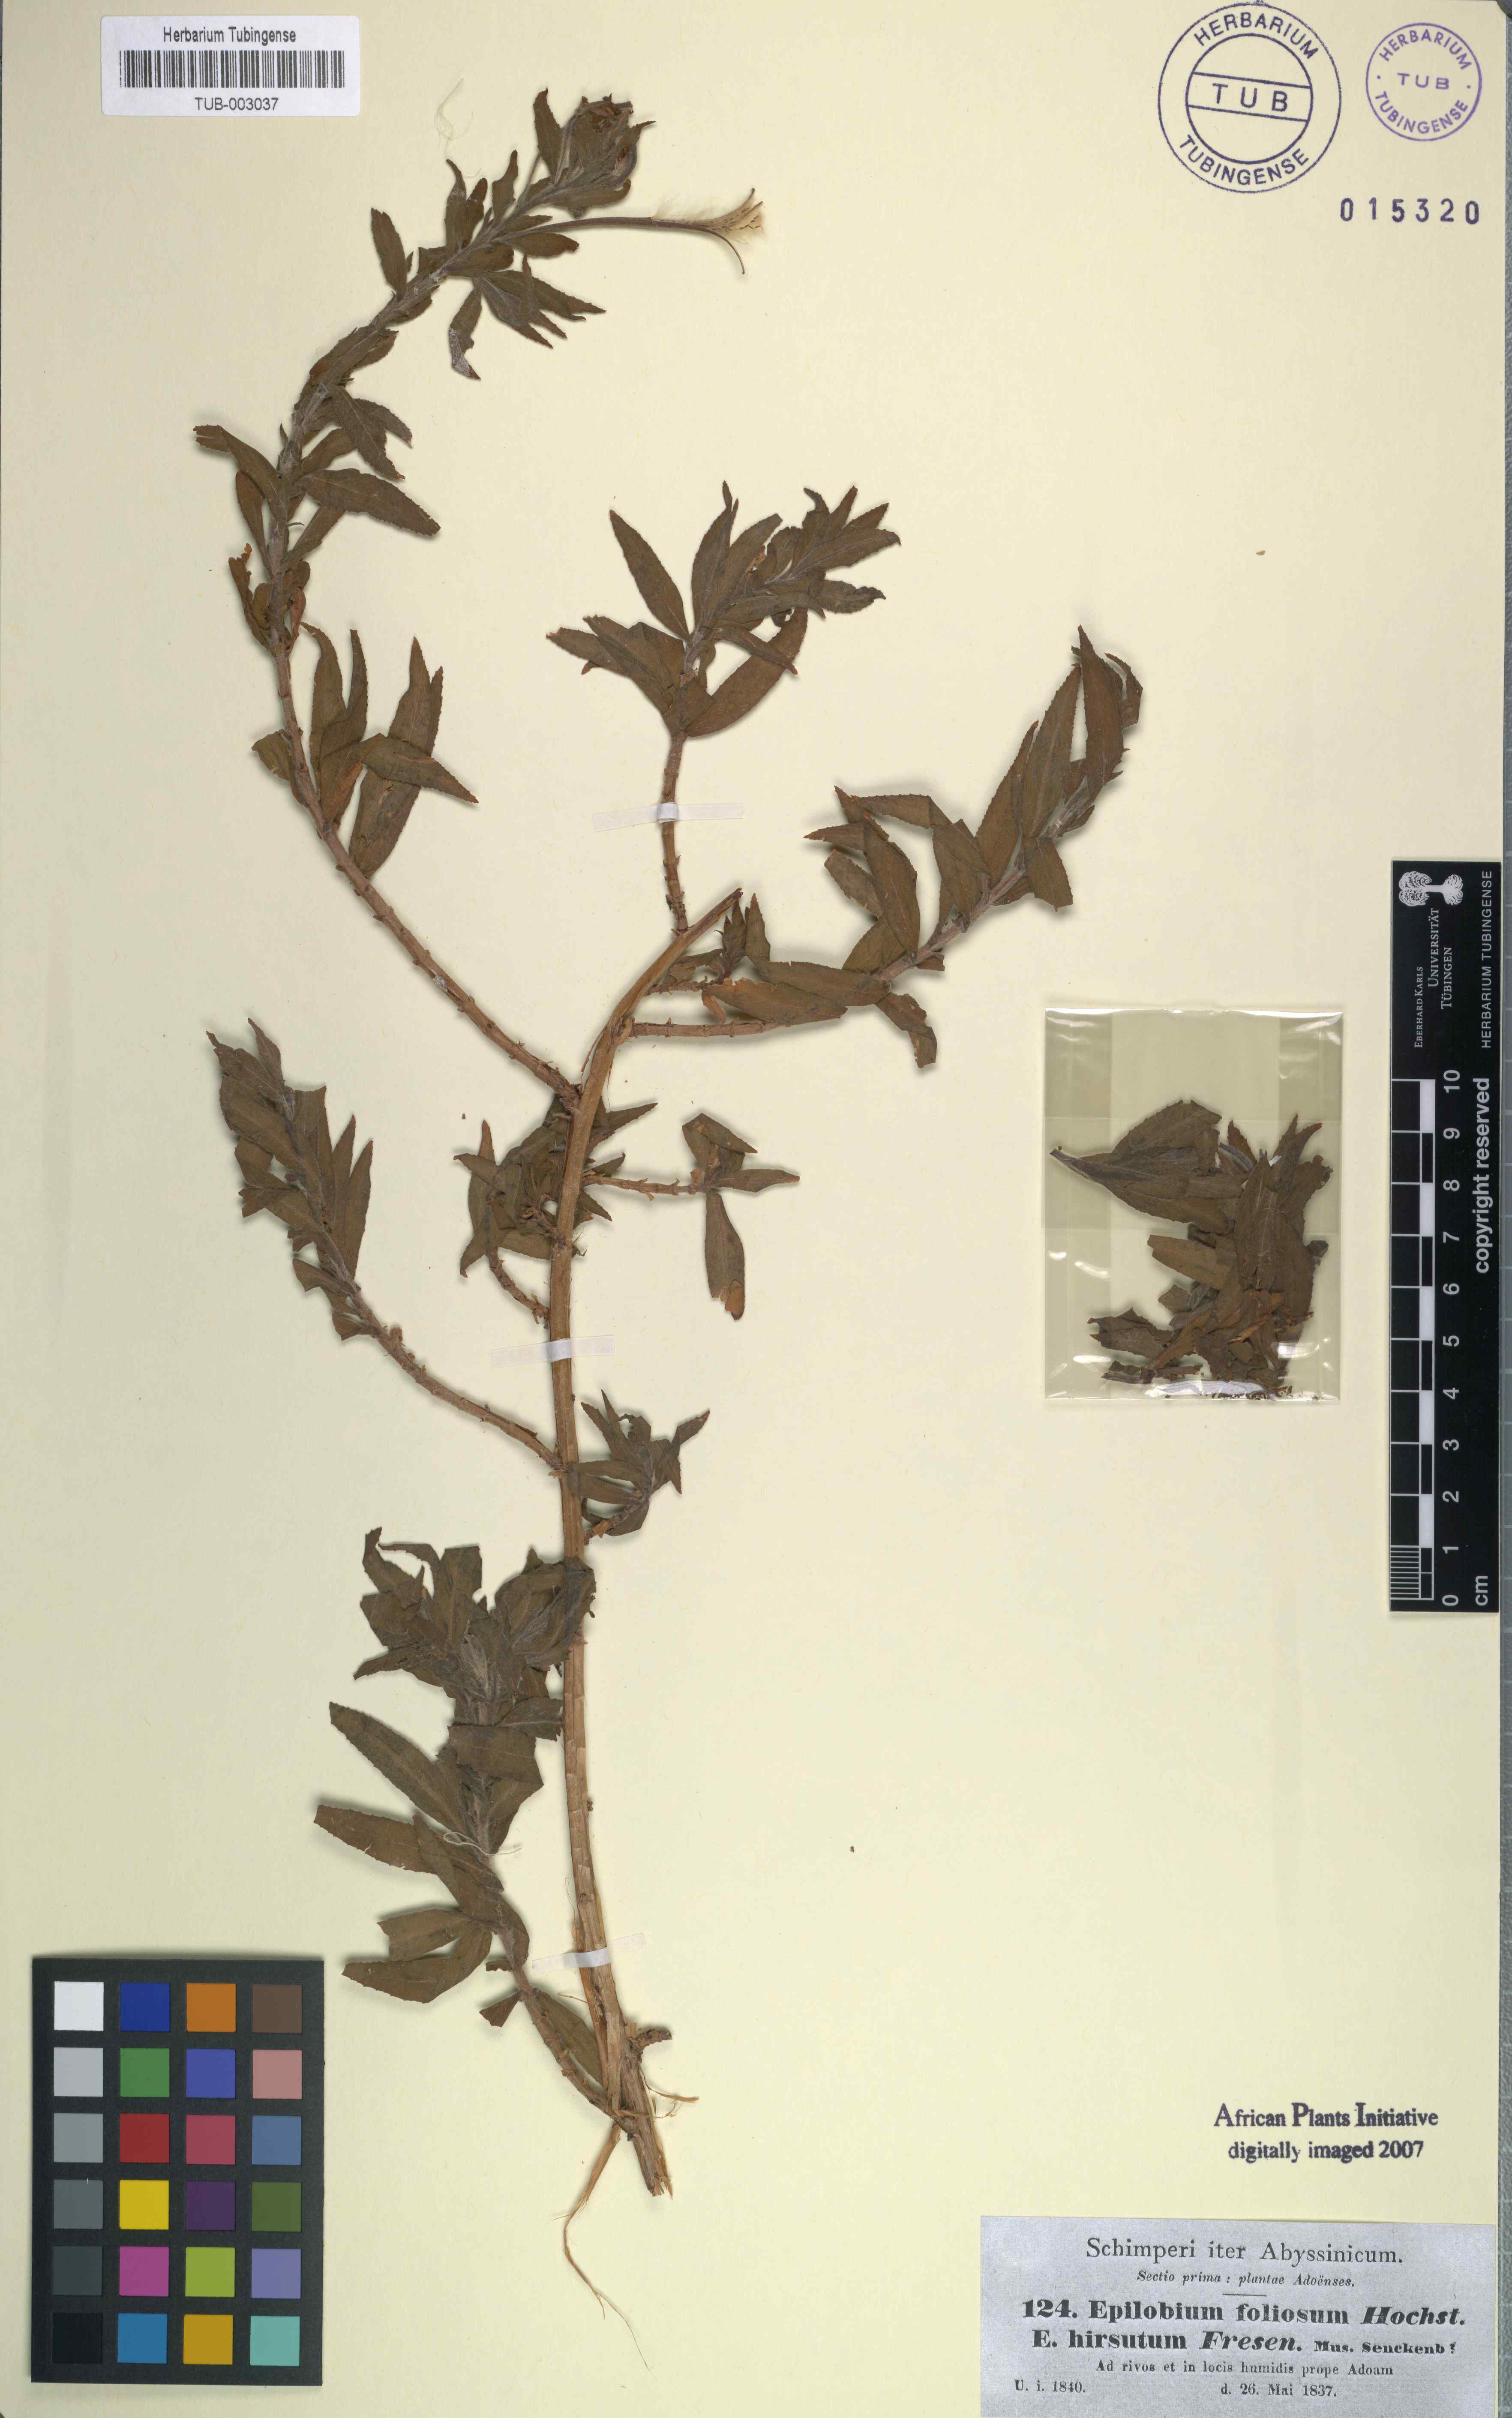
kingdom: Plantae
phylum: Tracheophyta
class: Magnoliopsida
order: Myrtales
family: Onagraceae
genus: Epilobium
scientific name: Epilobium hirsutum
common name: Great willowherb
